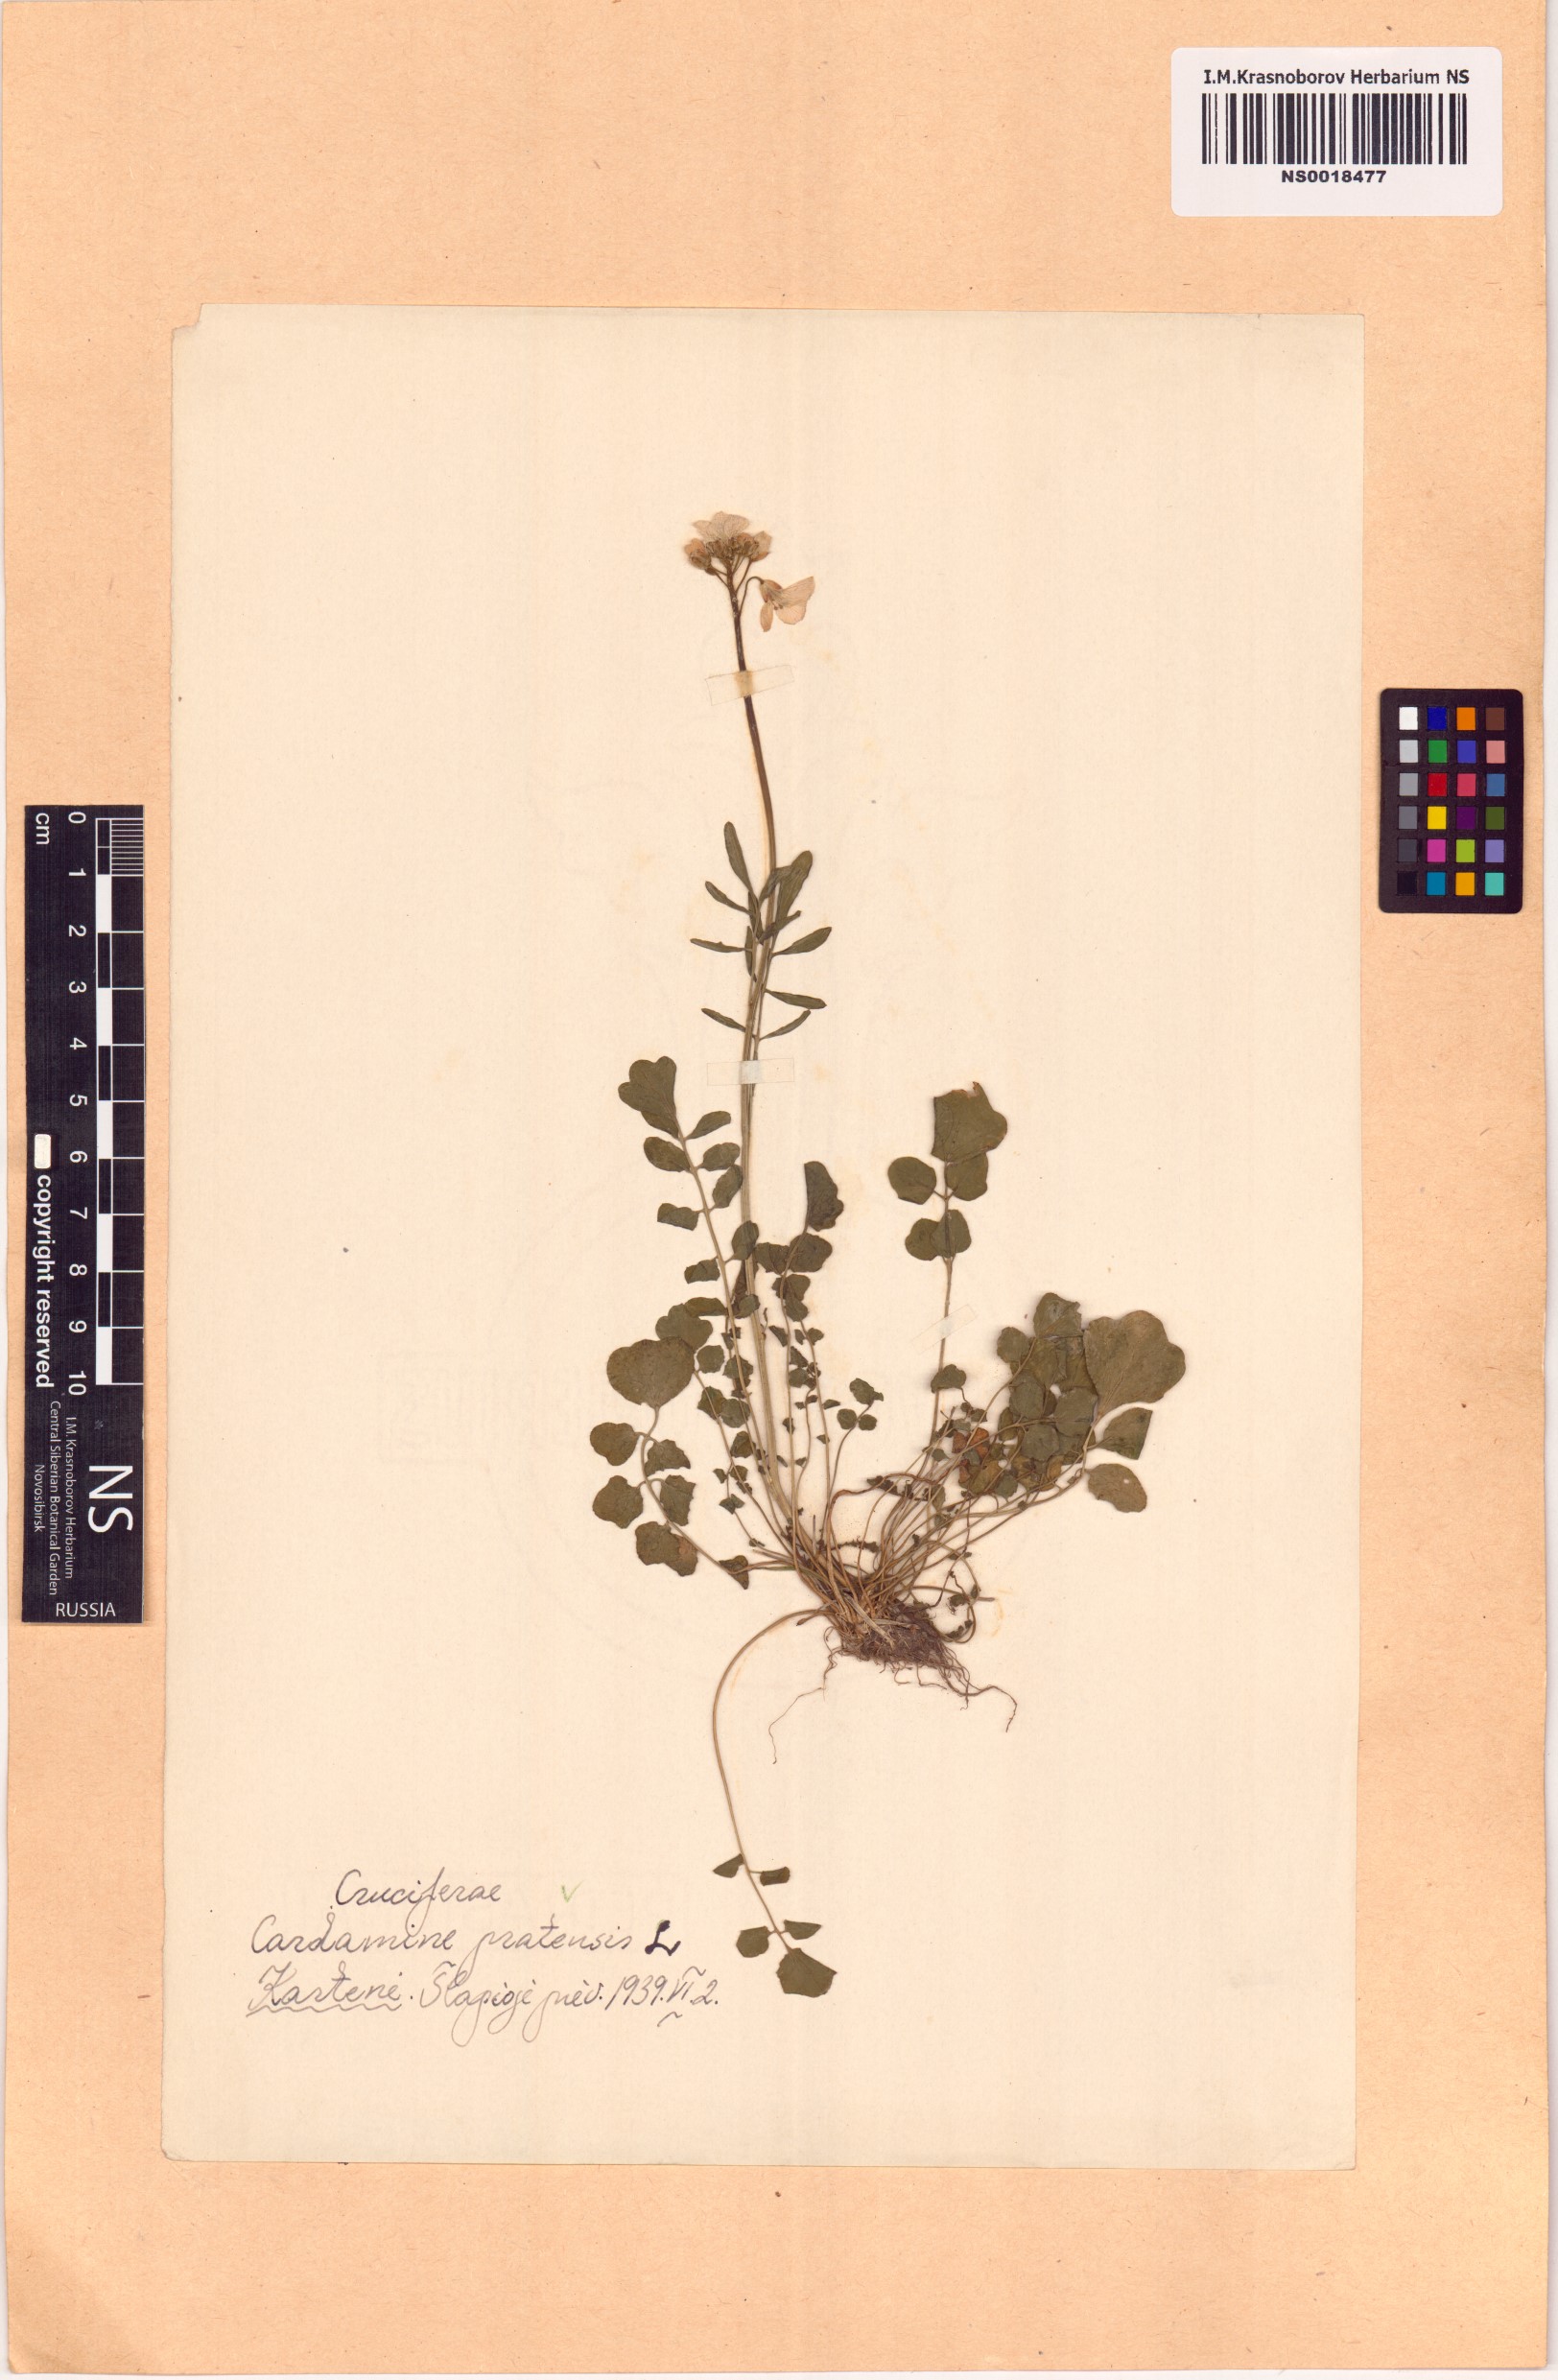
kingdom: Plantae
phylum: Tracheophyta
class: Magnoliopsida
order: Brassicales
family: Brassicaceae
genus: Cardamine
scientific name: Cardamine pratensis
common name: Cuckoo flower
